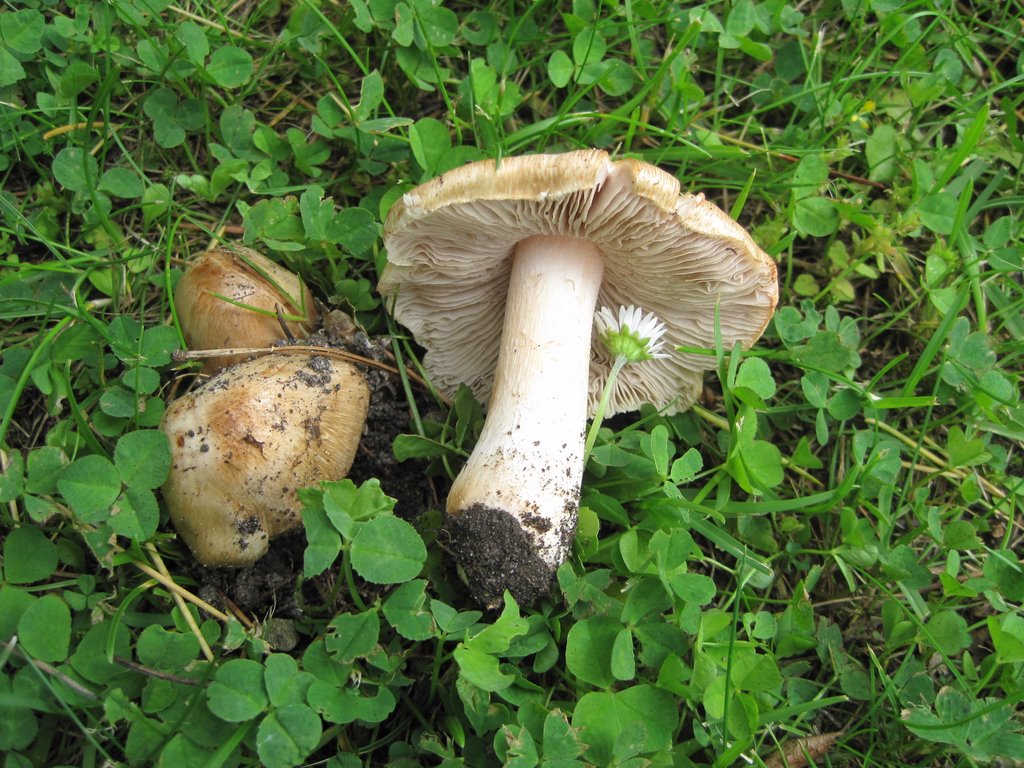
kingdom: Fungi
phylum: Basidiomycota
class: Agaricomycetes
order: Agaricales
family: Inocybaceae
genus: Inosperma
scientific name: Inosperma erubescens
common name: giftig trævlhat
